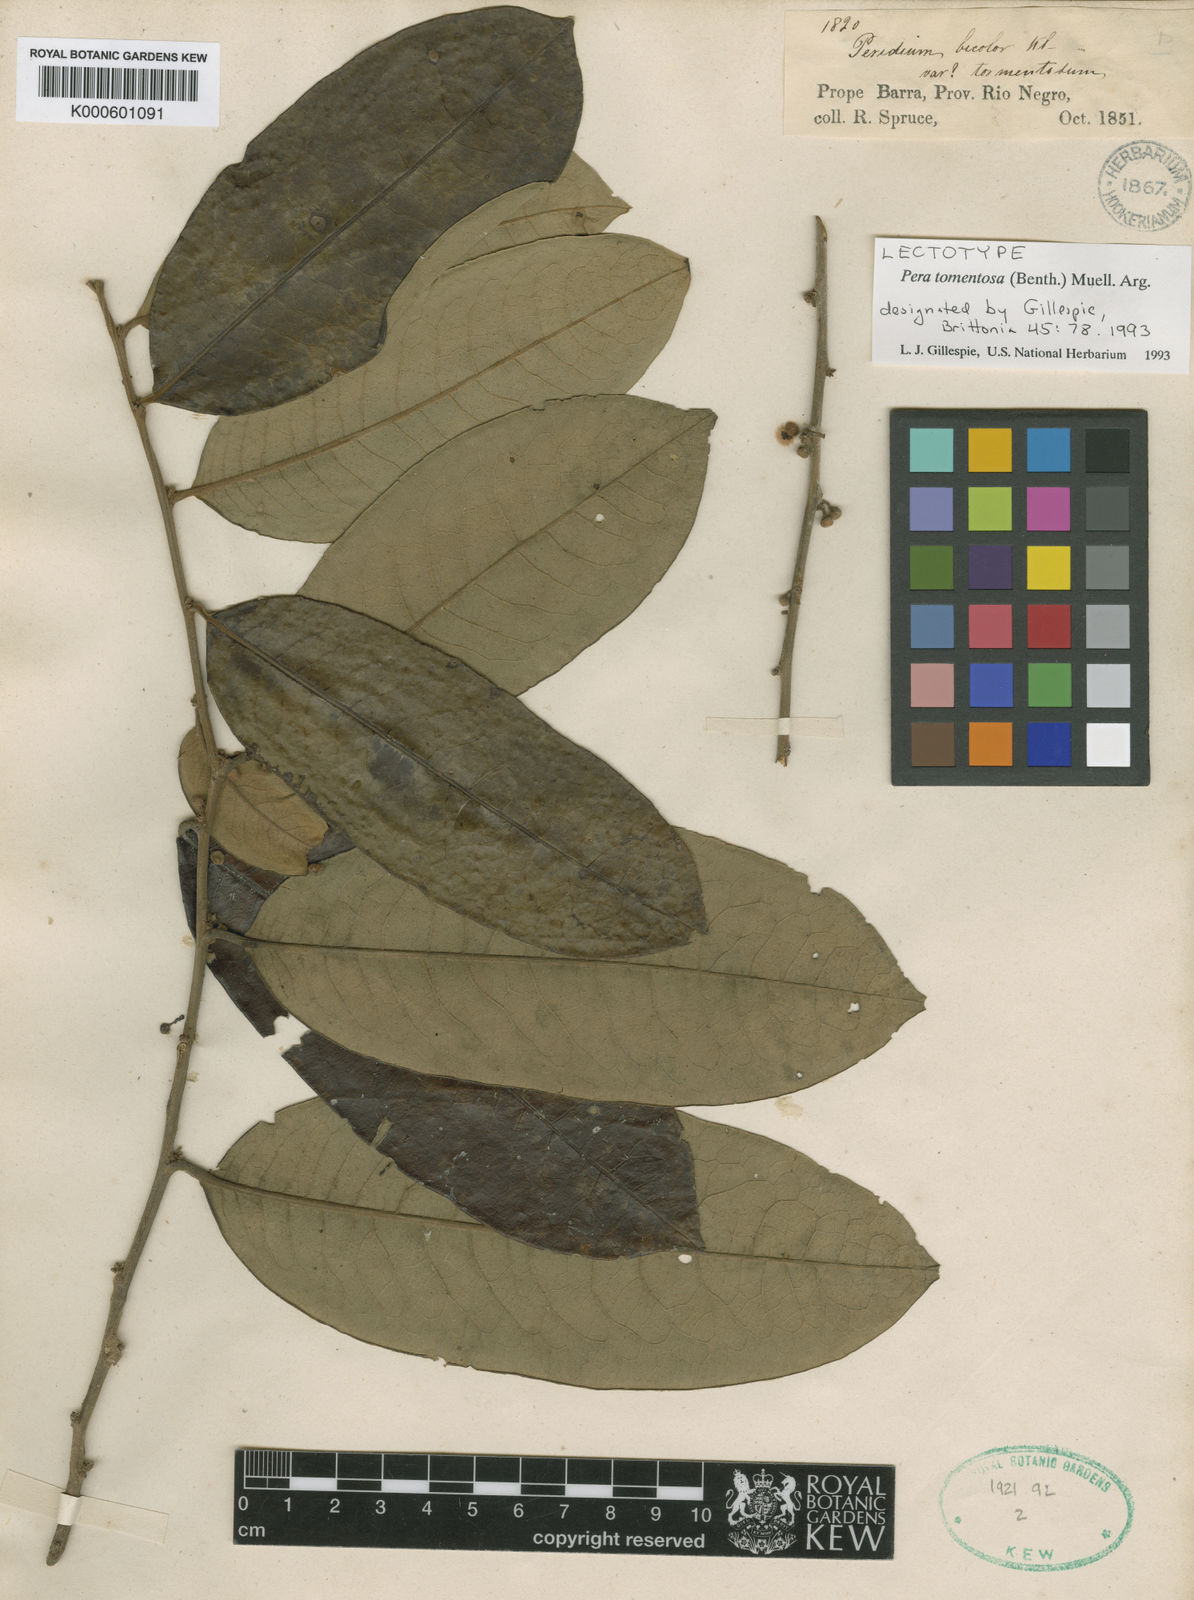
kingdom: Plantae
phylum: Tracheophyta
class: Magnoliopsida
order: Malpighiales
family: Peraceae
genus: Pera
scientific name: Pera
